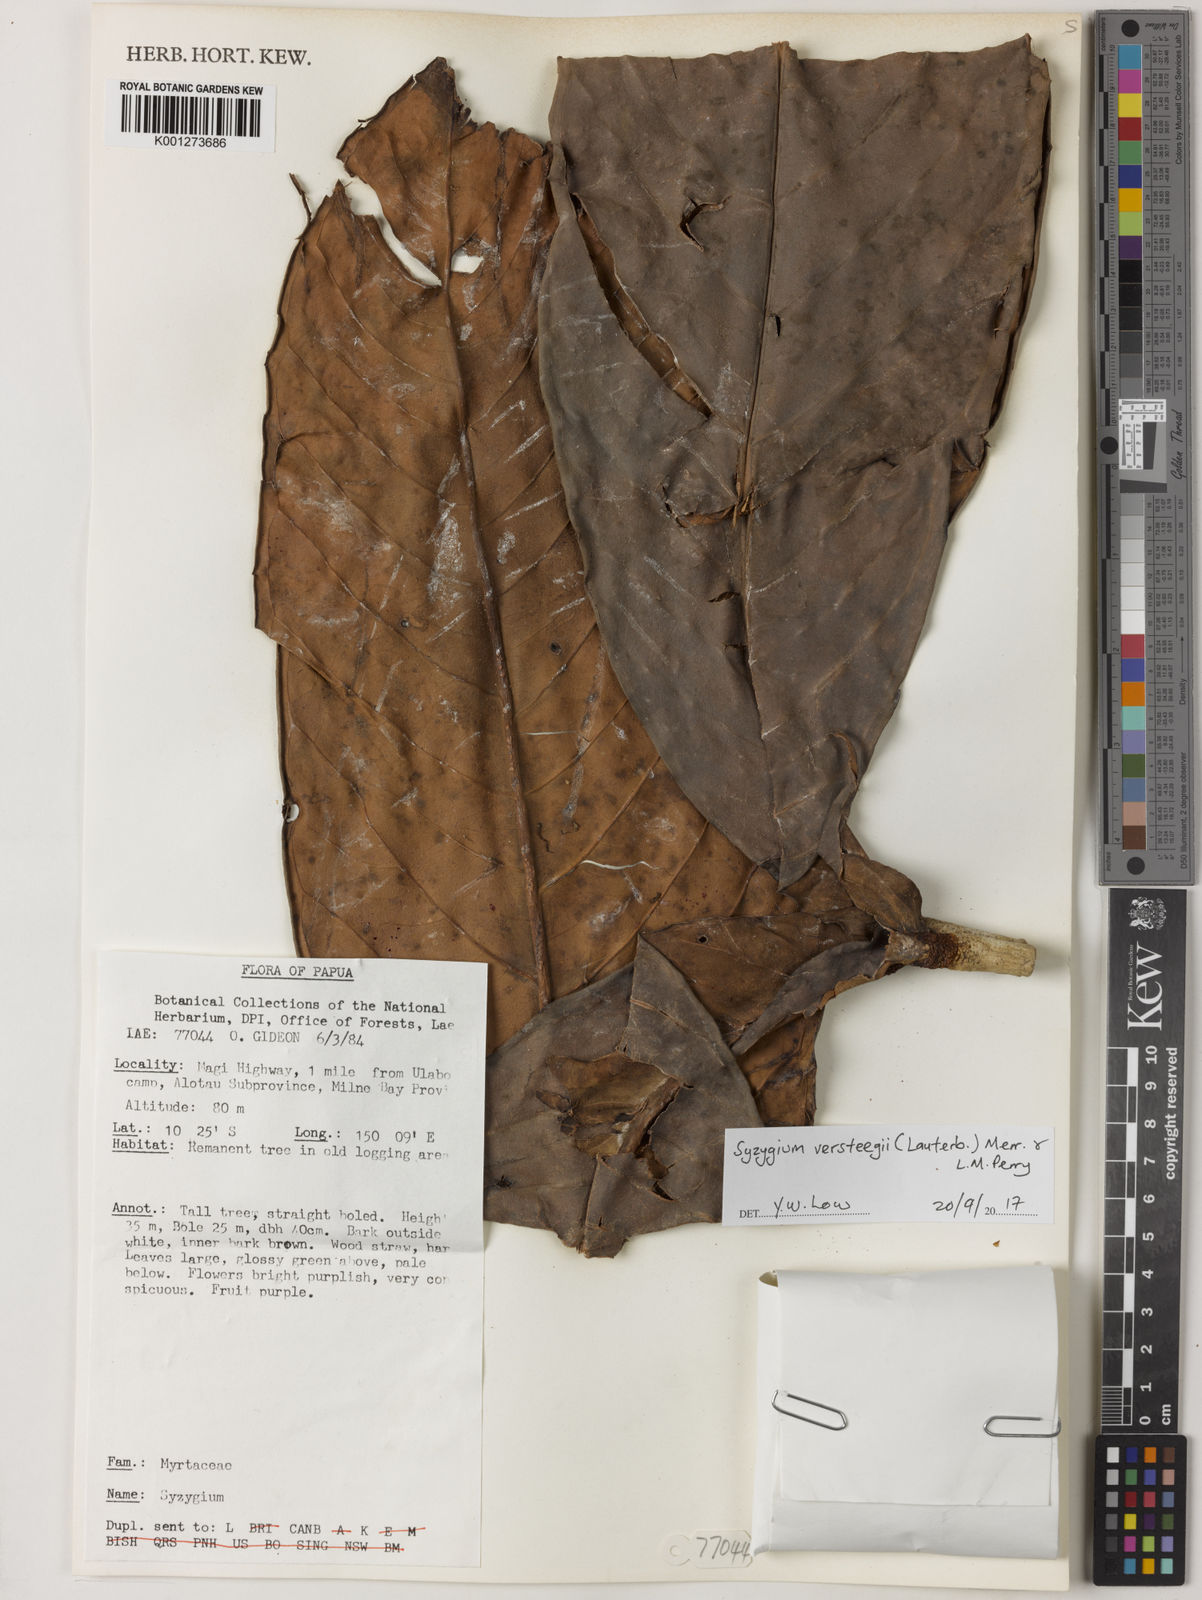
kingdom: Plantae
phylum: Tracheophyta
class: Magnoliopsida
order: Myrtales
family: Myrtaceae
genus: Syzygium
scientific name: Syzygium versteegii
